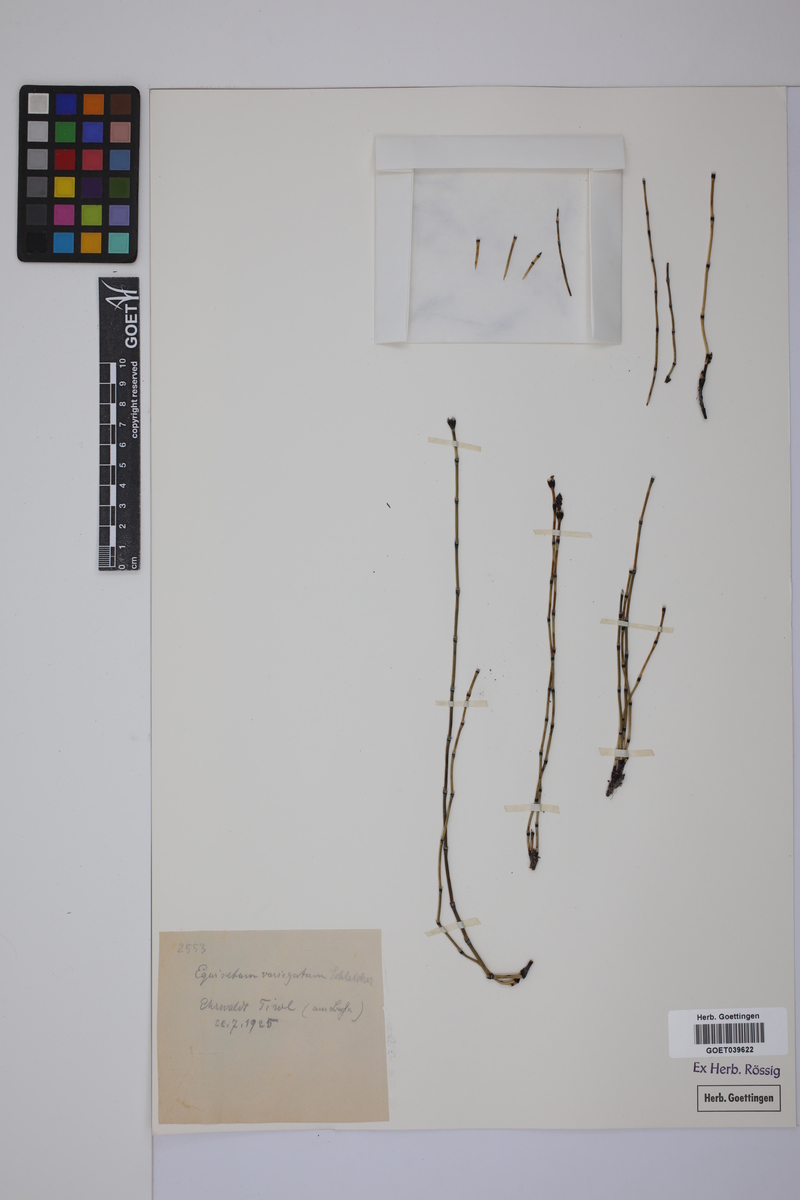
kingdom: Plantae
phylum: Tracheophyta
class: Polypodiopsida
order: Equisetales
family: Equisetaceae
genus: Equisetum
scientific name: Equisetum variegatum
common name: Variegated horsetail
